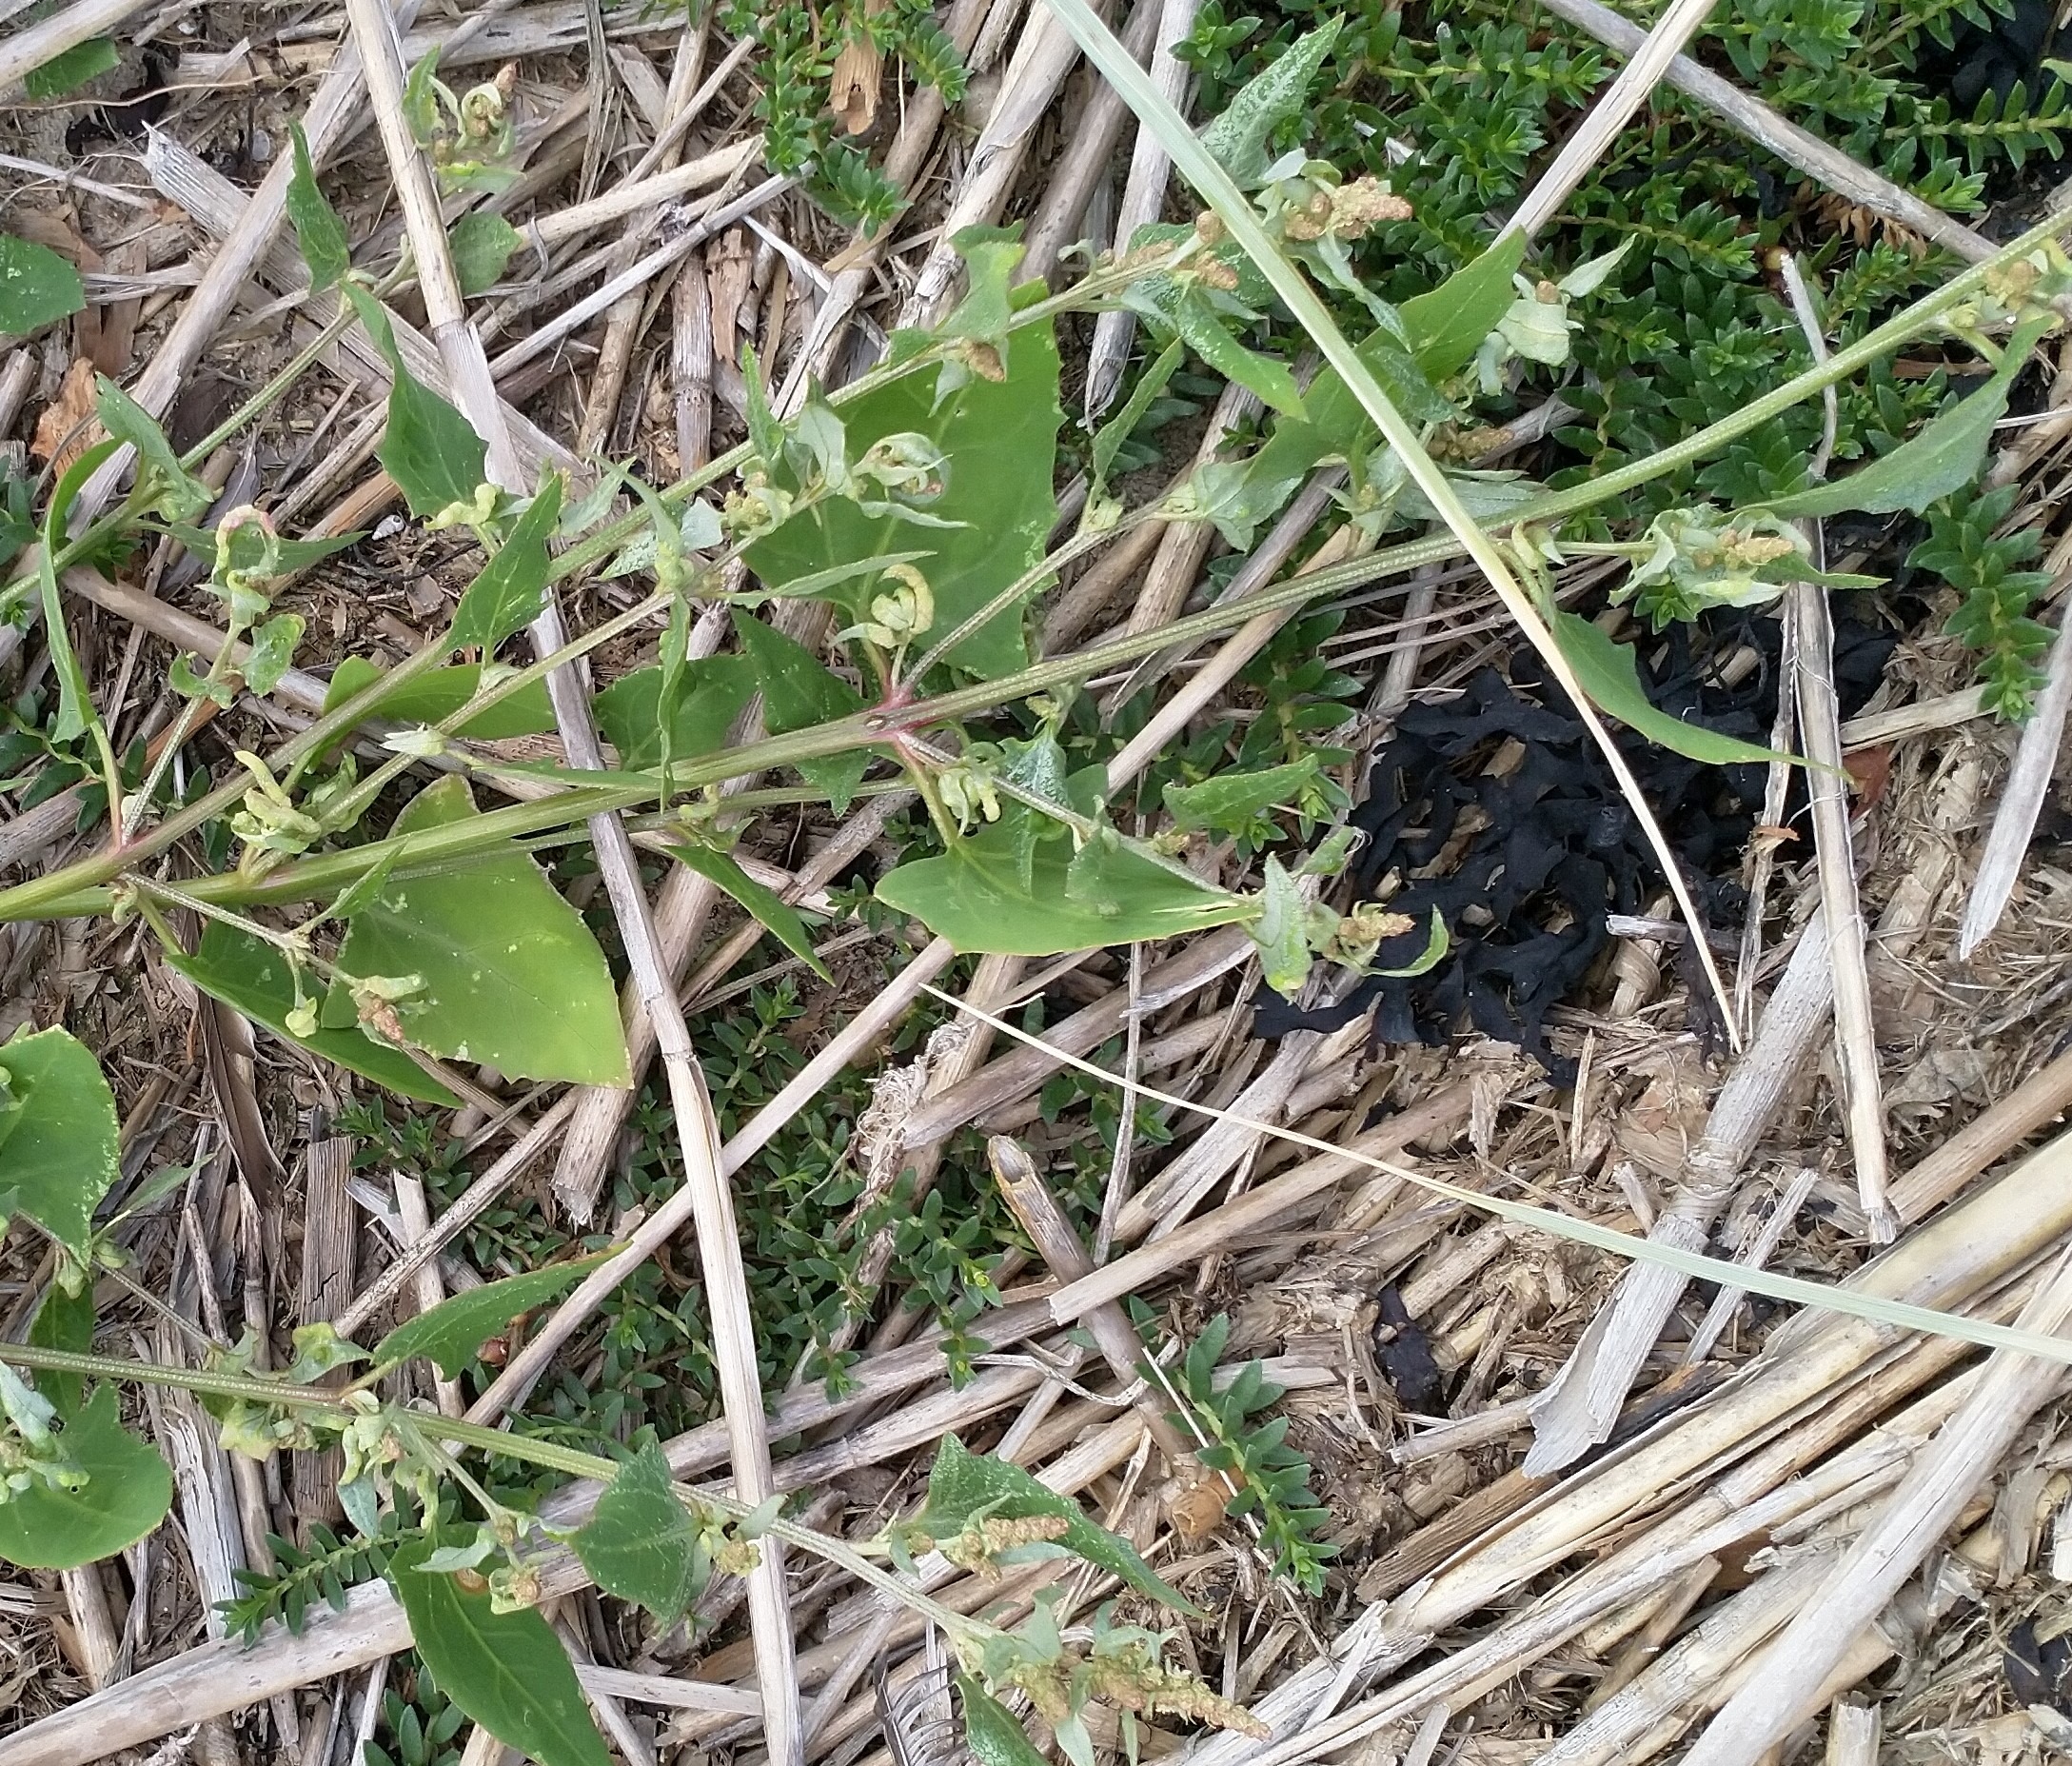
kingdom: Plantae
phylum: Tracheophyta
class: Magnoliopsida
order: Caryophyllales
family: Amaranthaceae
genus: Atriplex
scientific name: Atriplex prostrata
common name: Spyd-mælde
